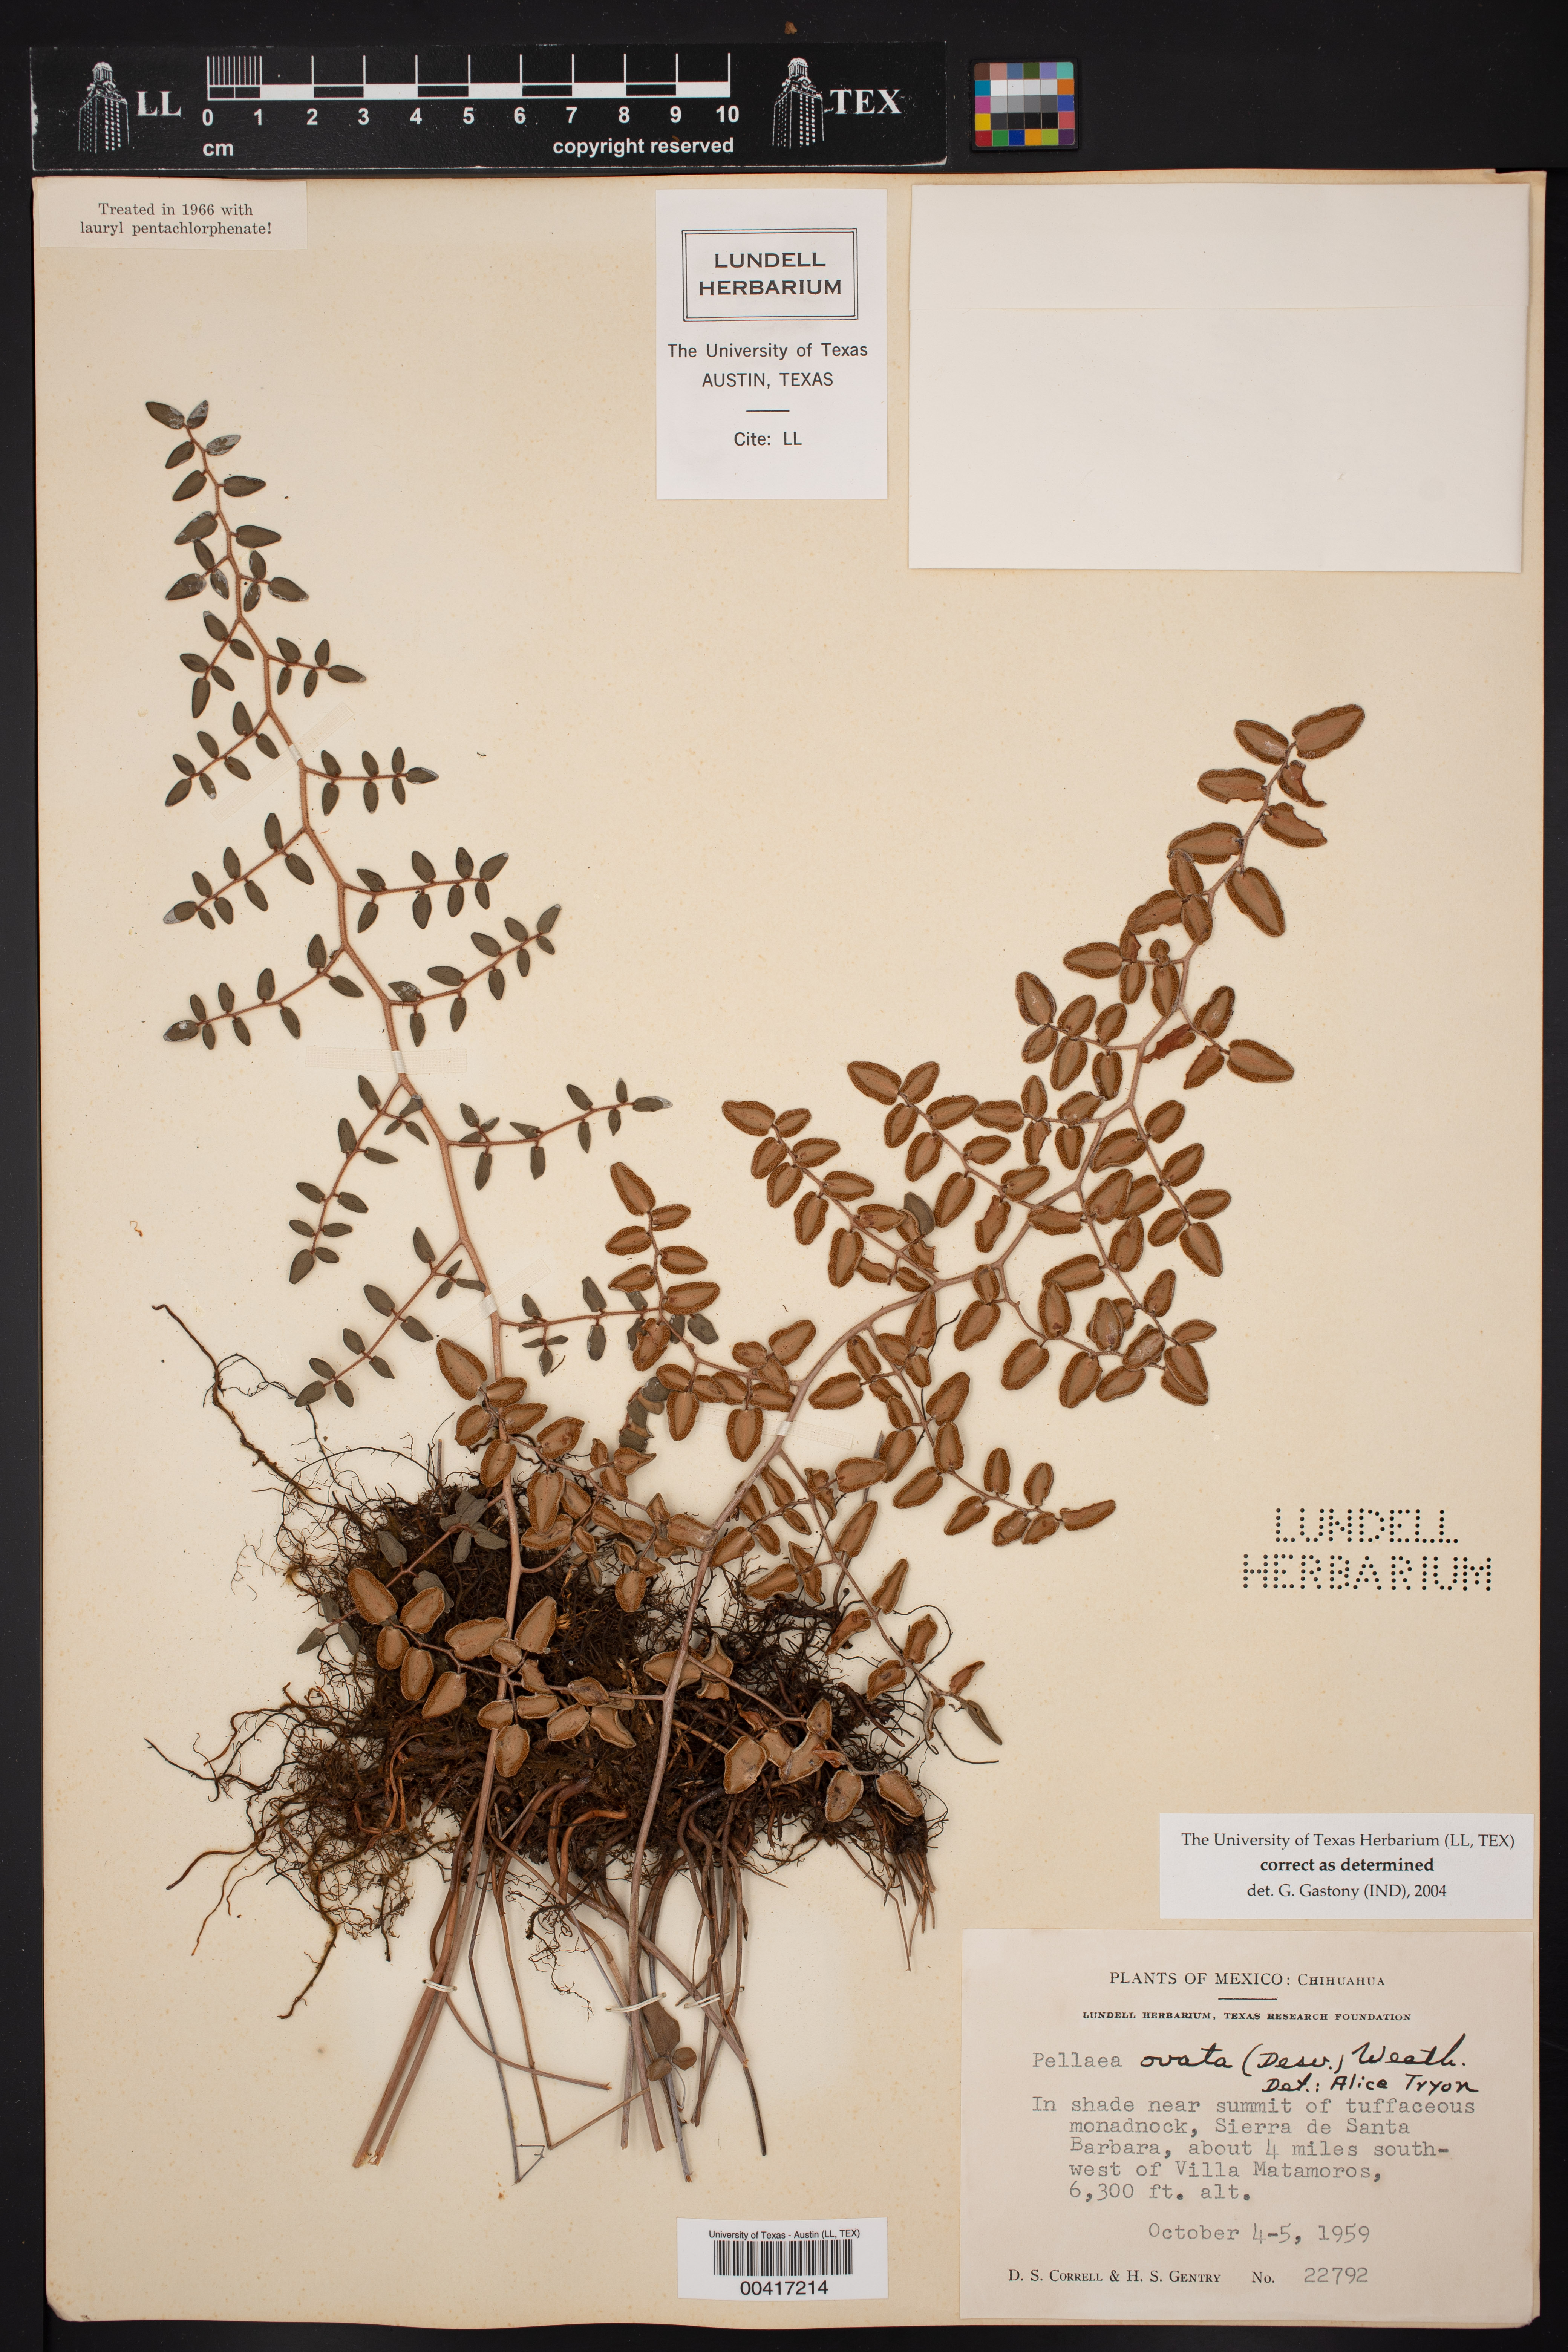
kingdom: Plantae
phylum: Tracheophyta
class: Polypodiopsida
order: Polypodiales
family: Pteridaceae
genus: Pellaea
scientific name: Pellaea ovata
